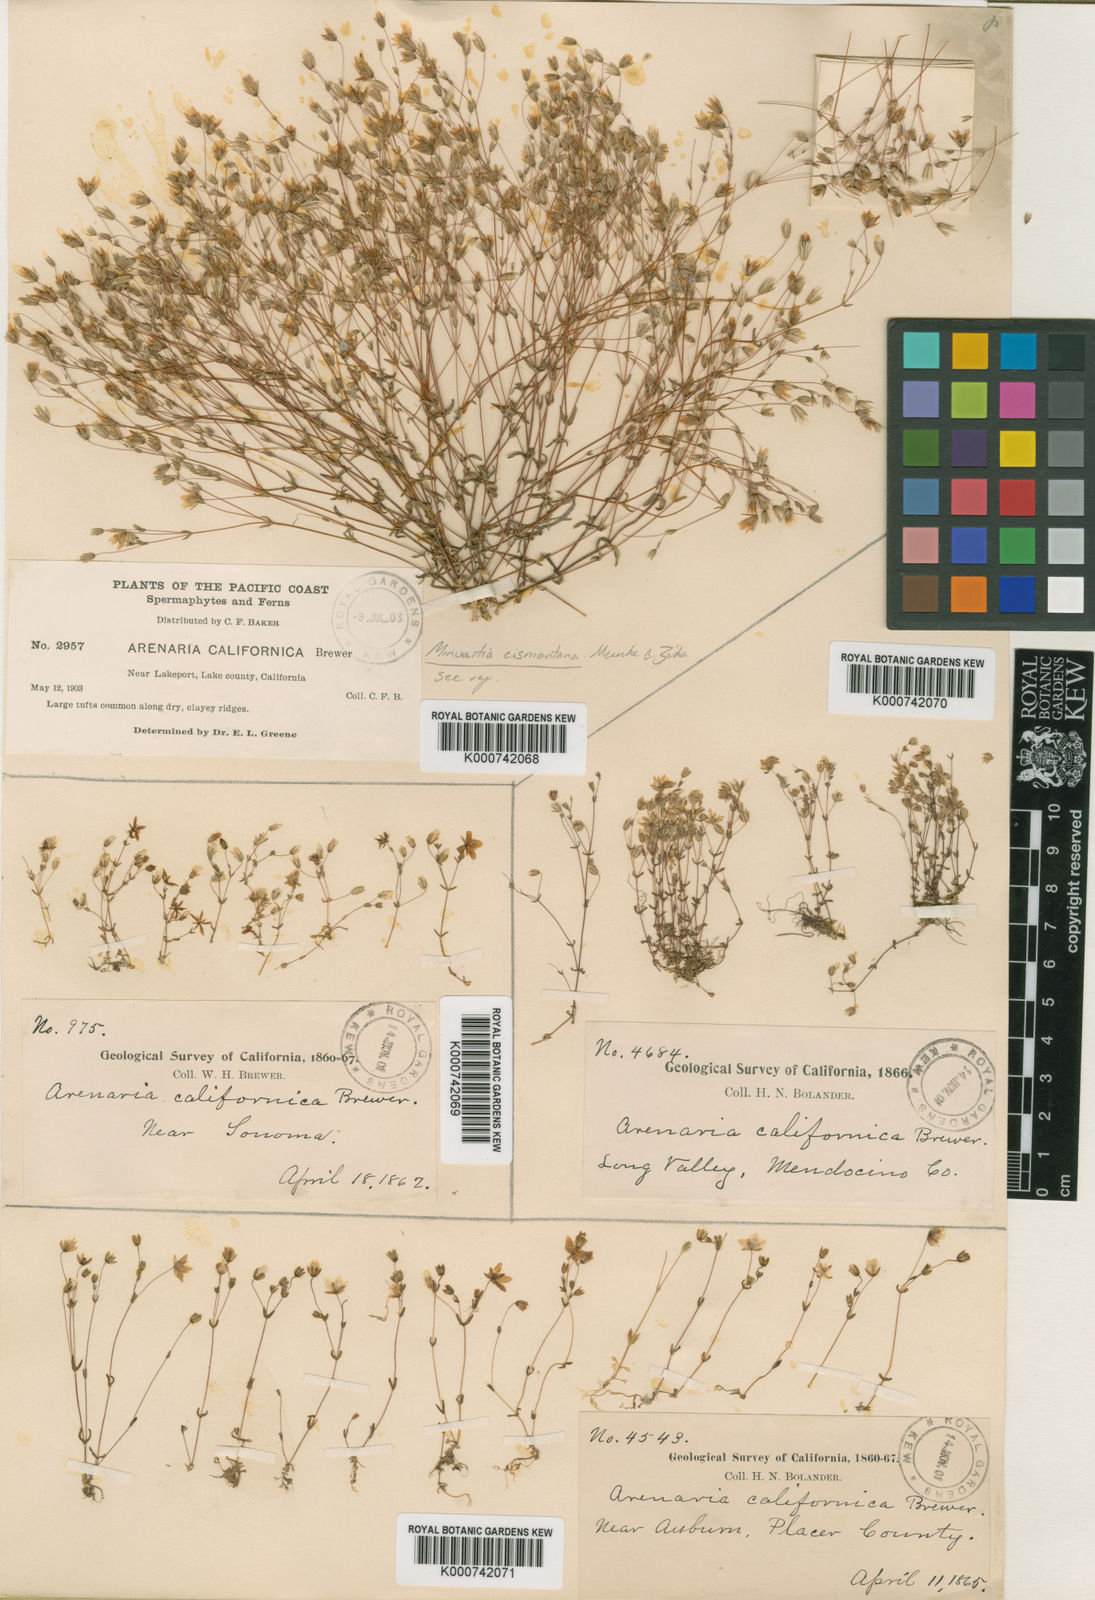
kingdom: Plantae
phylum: Tracheophyta
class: Magnoliopsida
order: Caryophyllales
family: Caryophyllaceae
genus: Sabulina
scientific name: Sabulina cismontana
